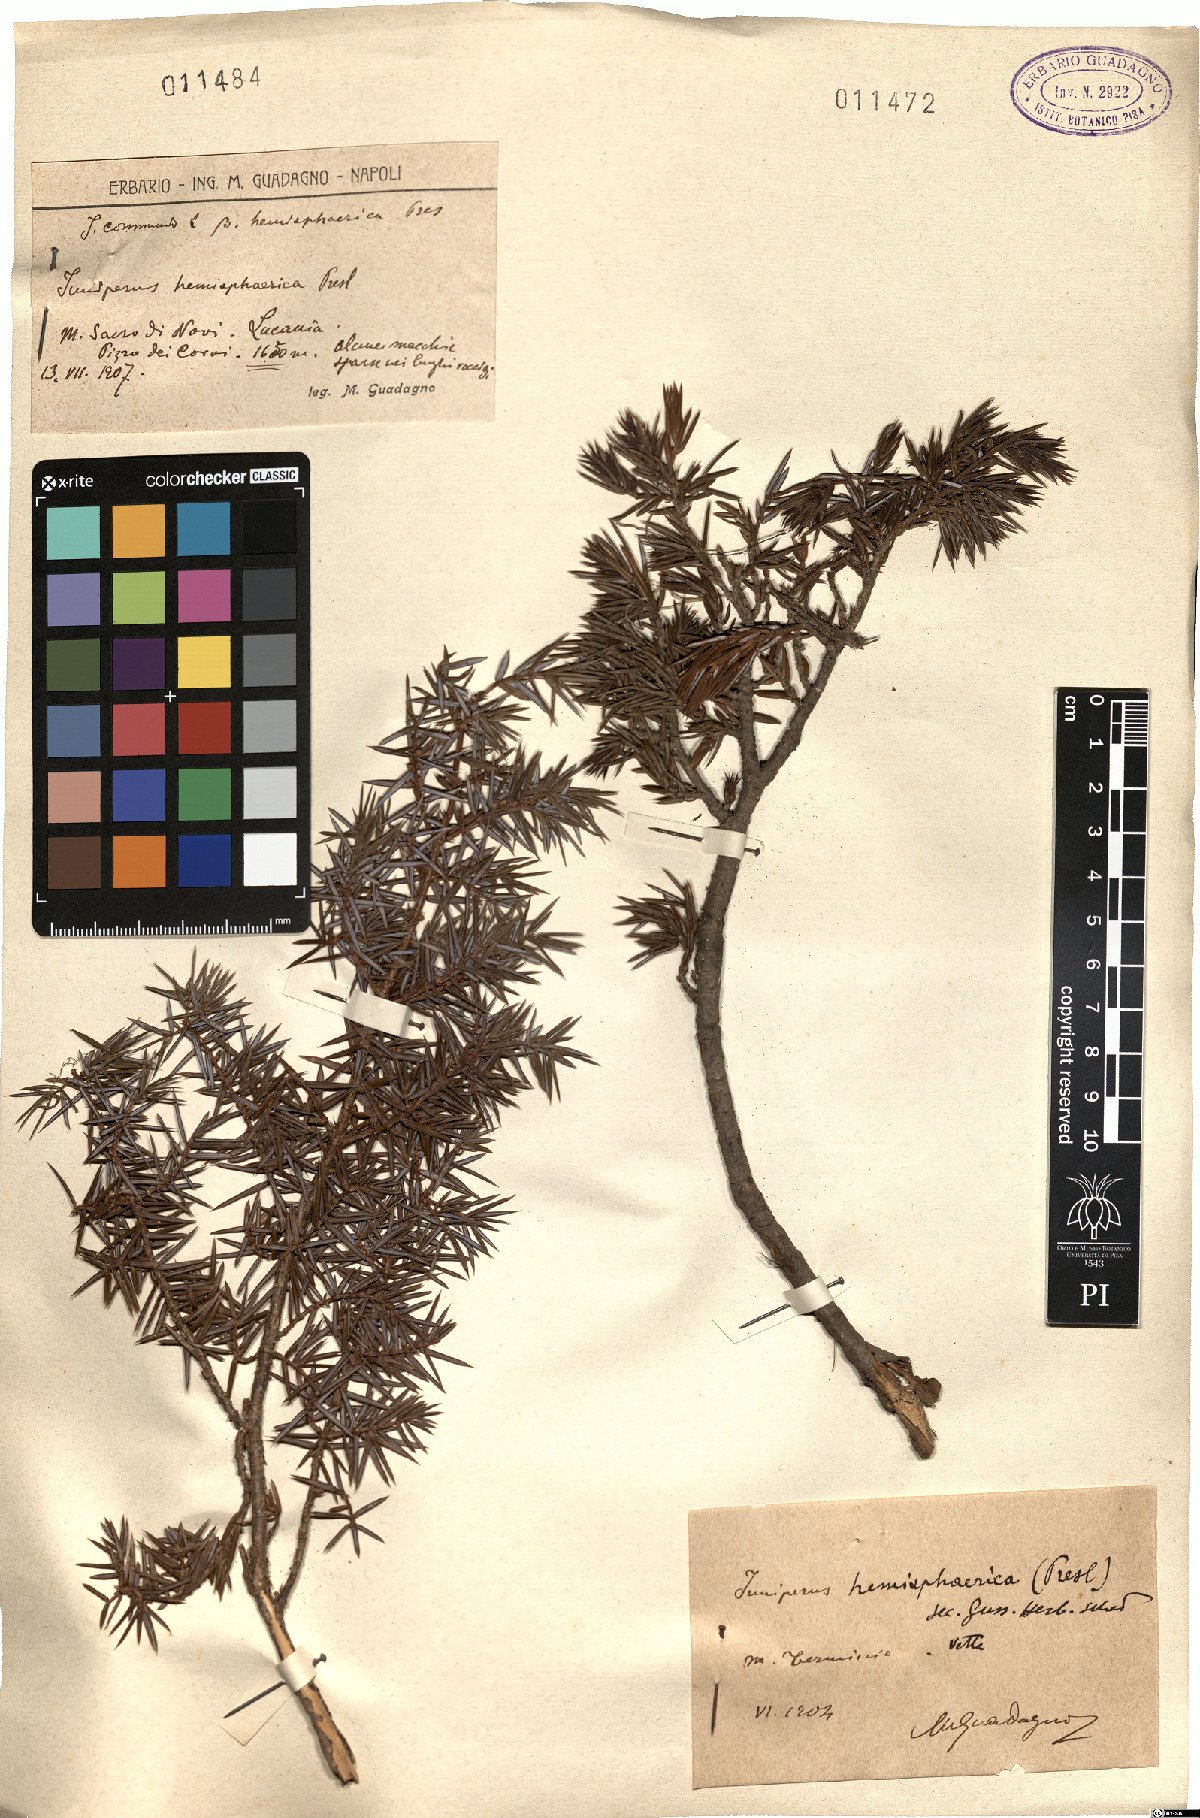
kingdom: Plantae
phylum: Tracheophyta
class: Pinopsida
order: Pinales
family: Cupressaceae
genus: Juniperus
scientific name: Juniperus communis
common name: Common juniper
